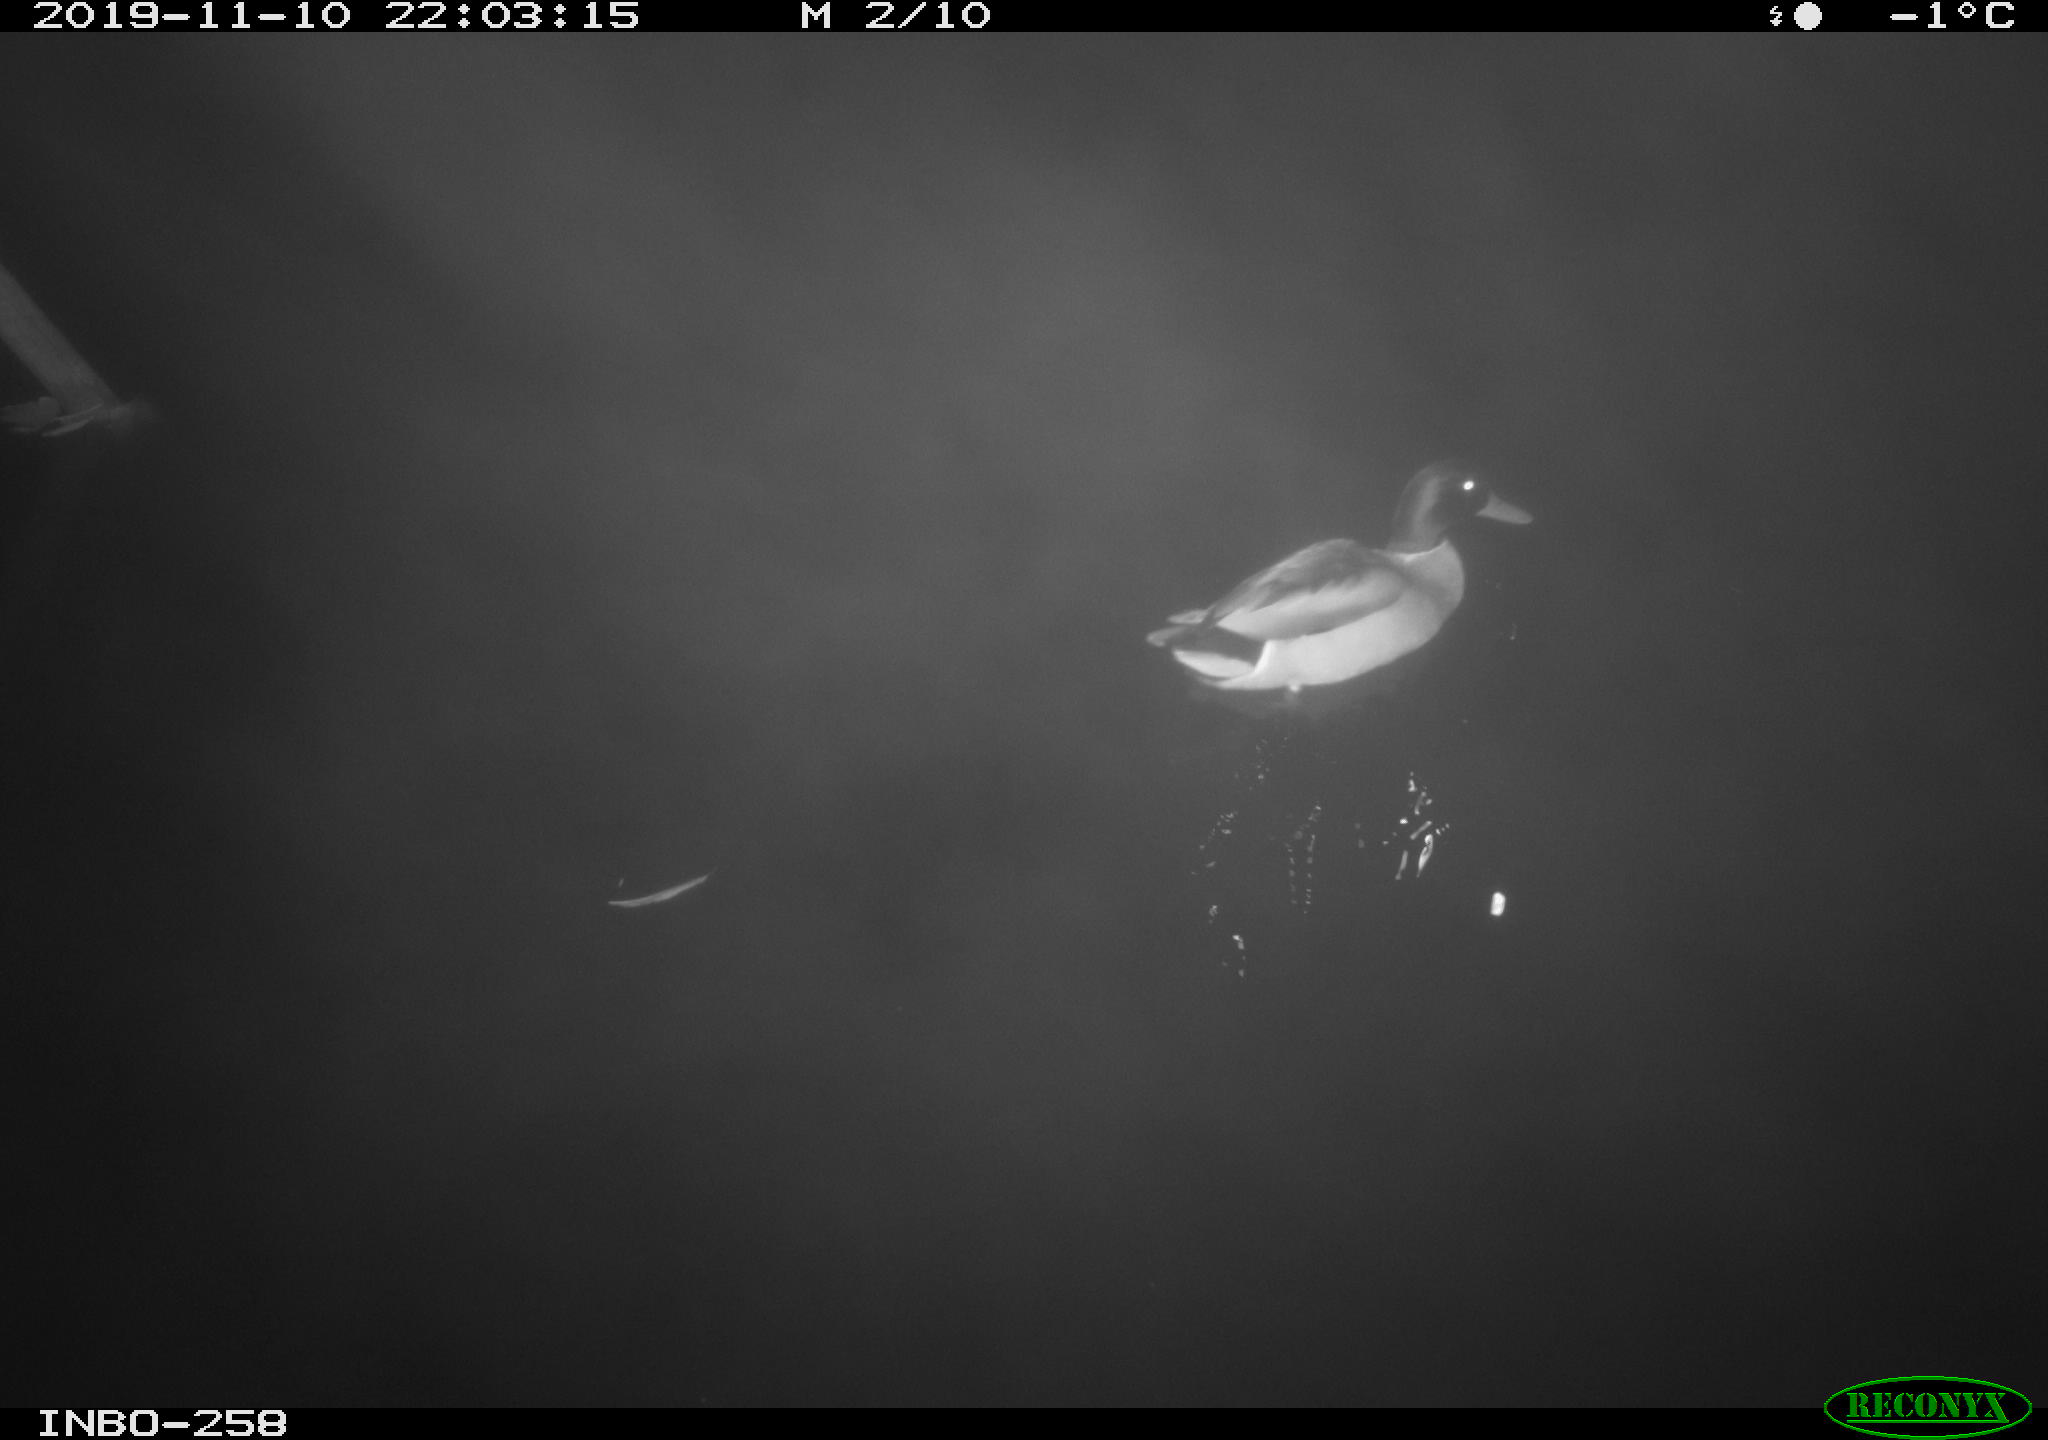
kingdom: Animalia
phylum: Chordata
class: Aves
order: Anseriformes
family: Anatidae
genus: Anas
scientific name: Anas platyrhynchos
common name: Mallard
